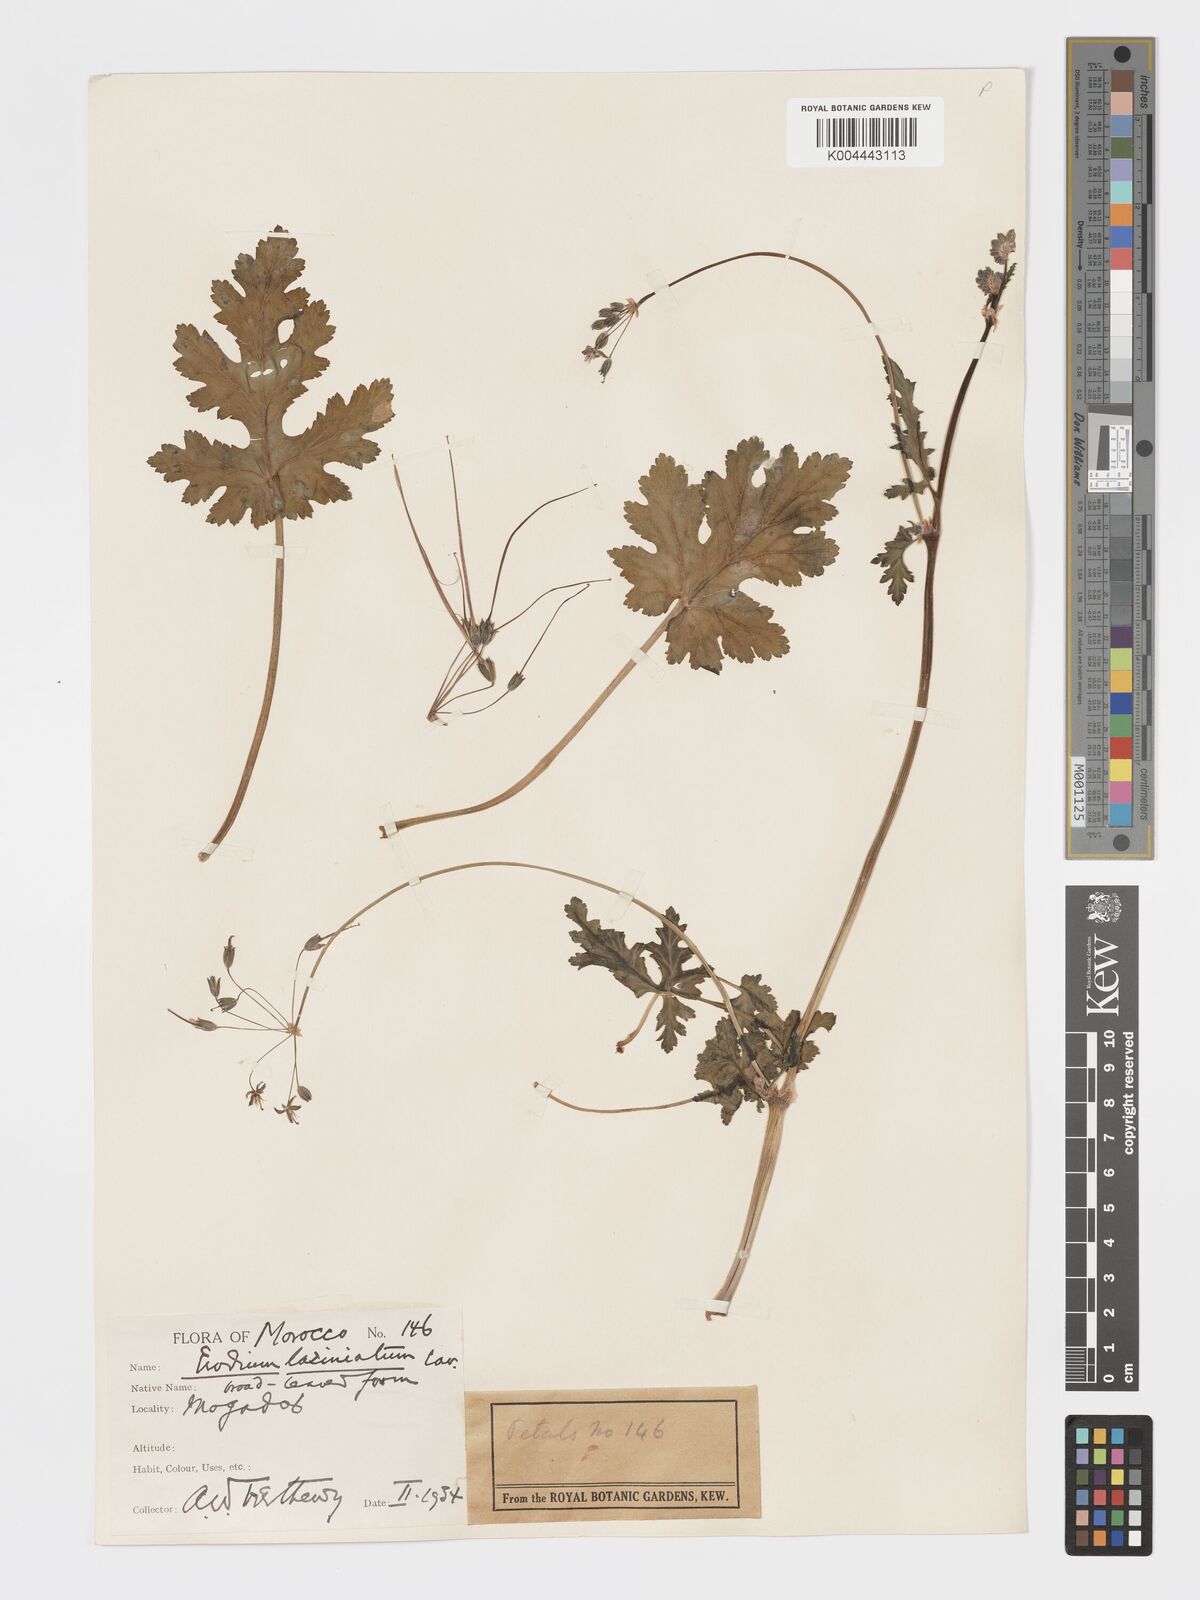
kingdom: Plantae
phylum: Tracheophyta
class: Magnoliopsida
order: Geraniales
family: Geraniaceae
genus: Erodium
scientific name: Erodium hesperium
